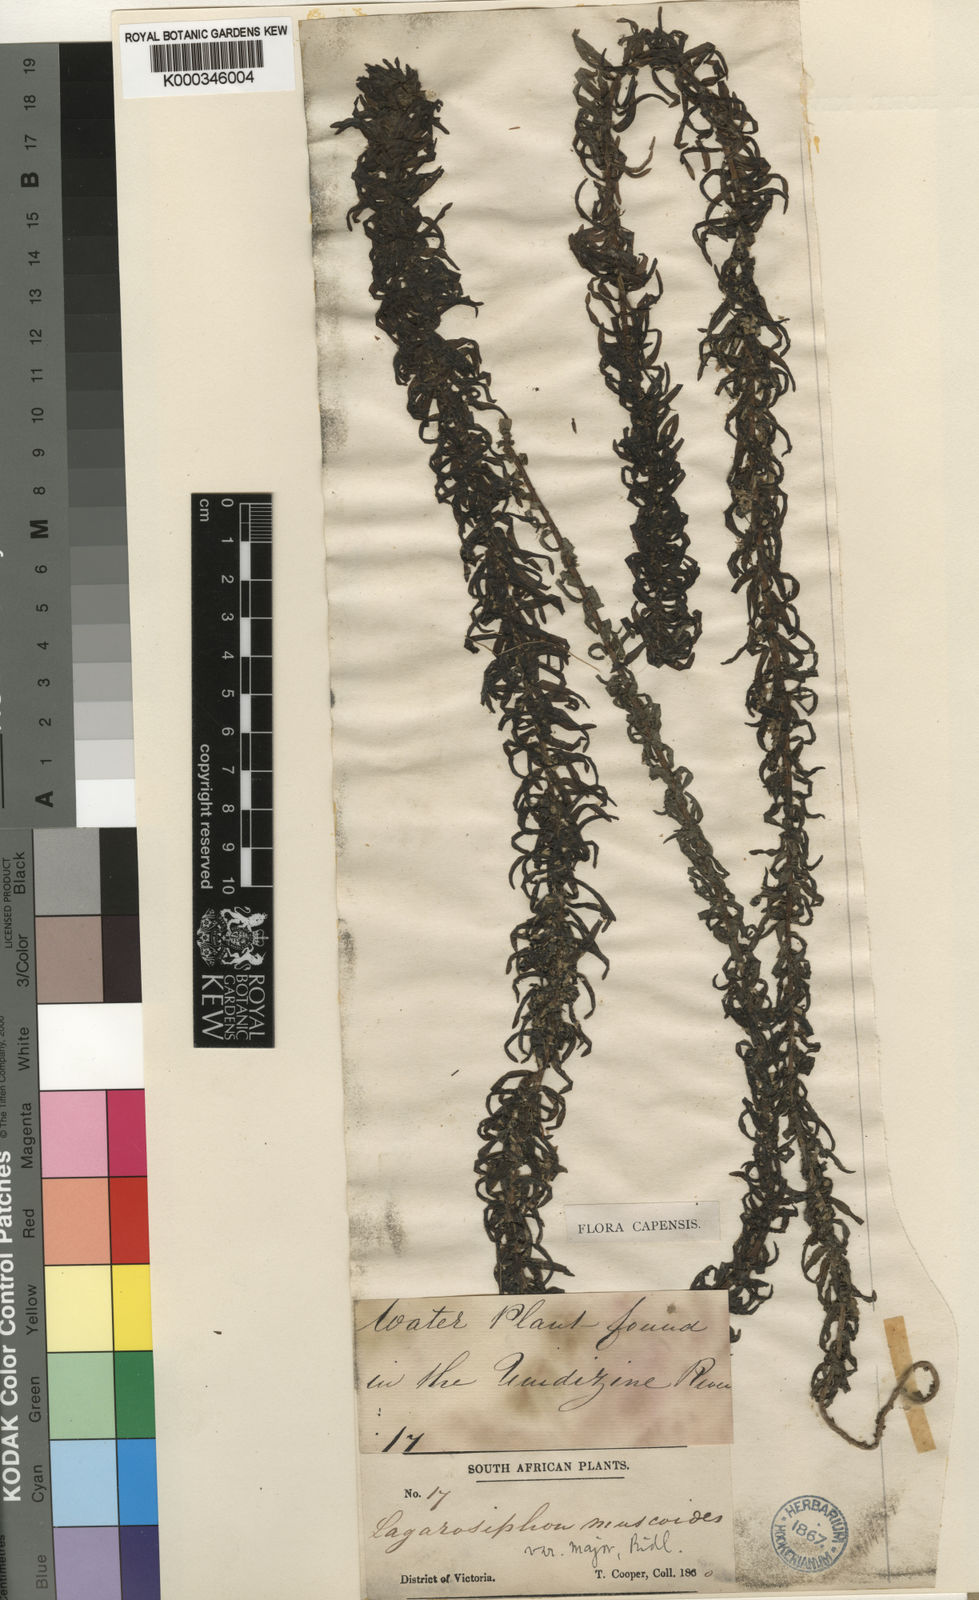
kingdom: Plantae
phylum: Tracheophyta
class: Liliopsida
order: Alismatales
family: Hydrocharitaceae
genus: Lagarosiphon
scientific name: Lagarosiphon
